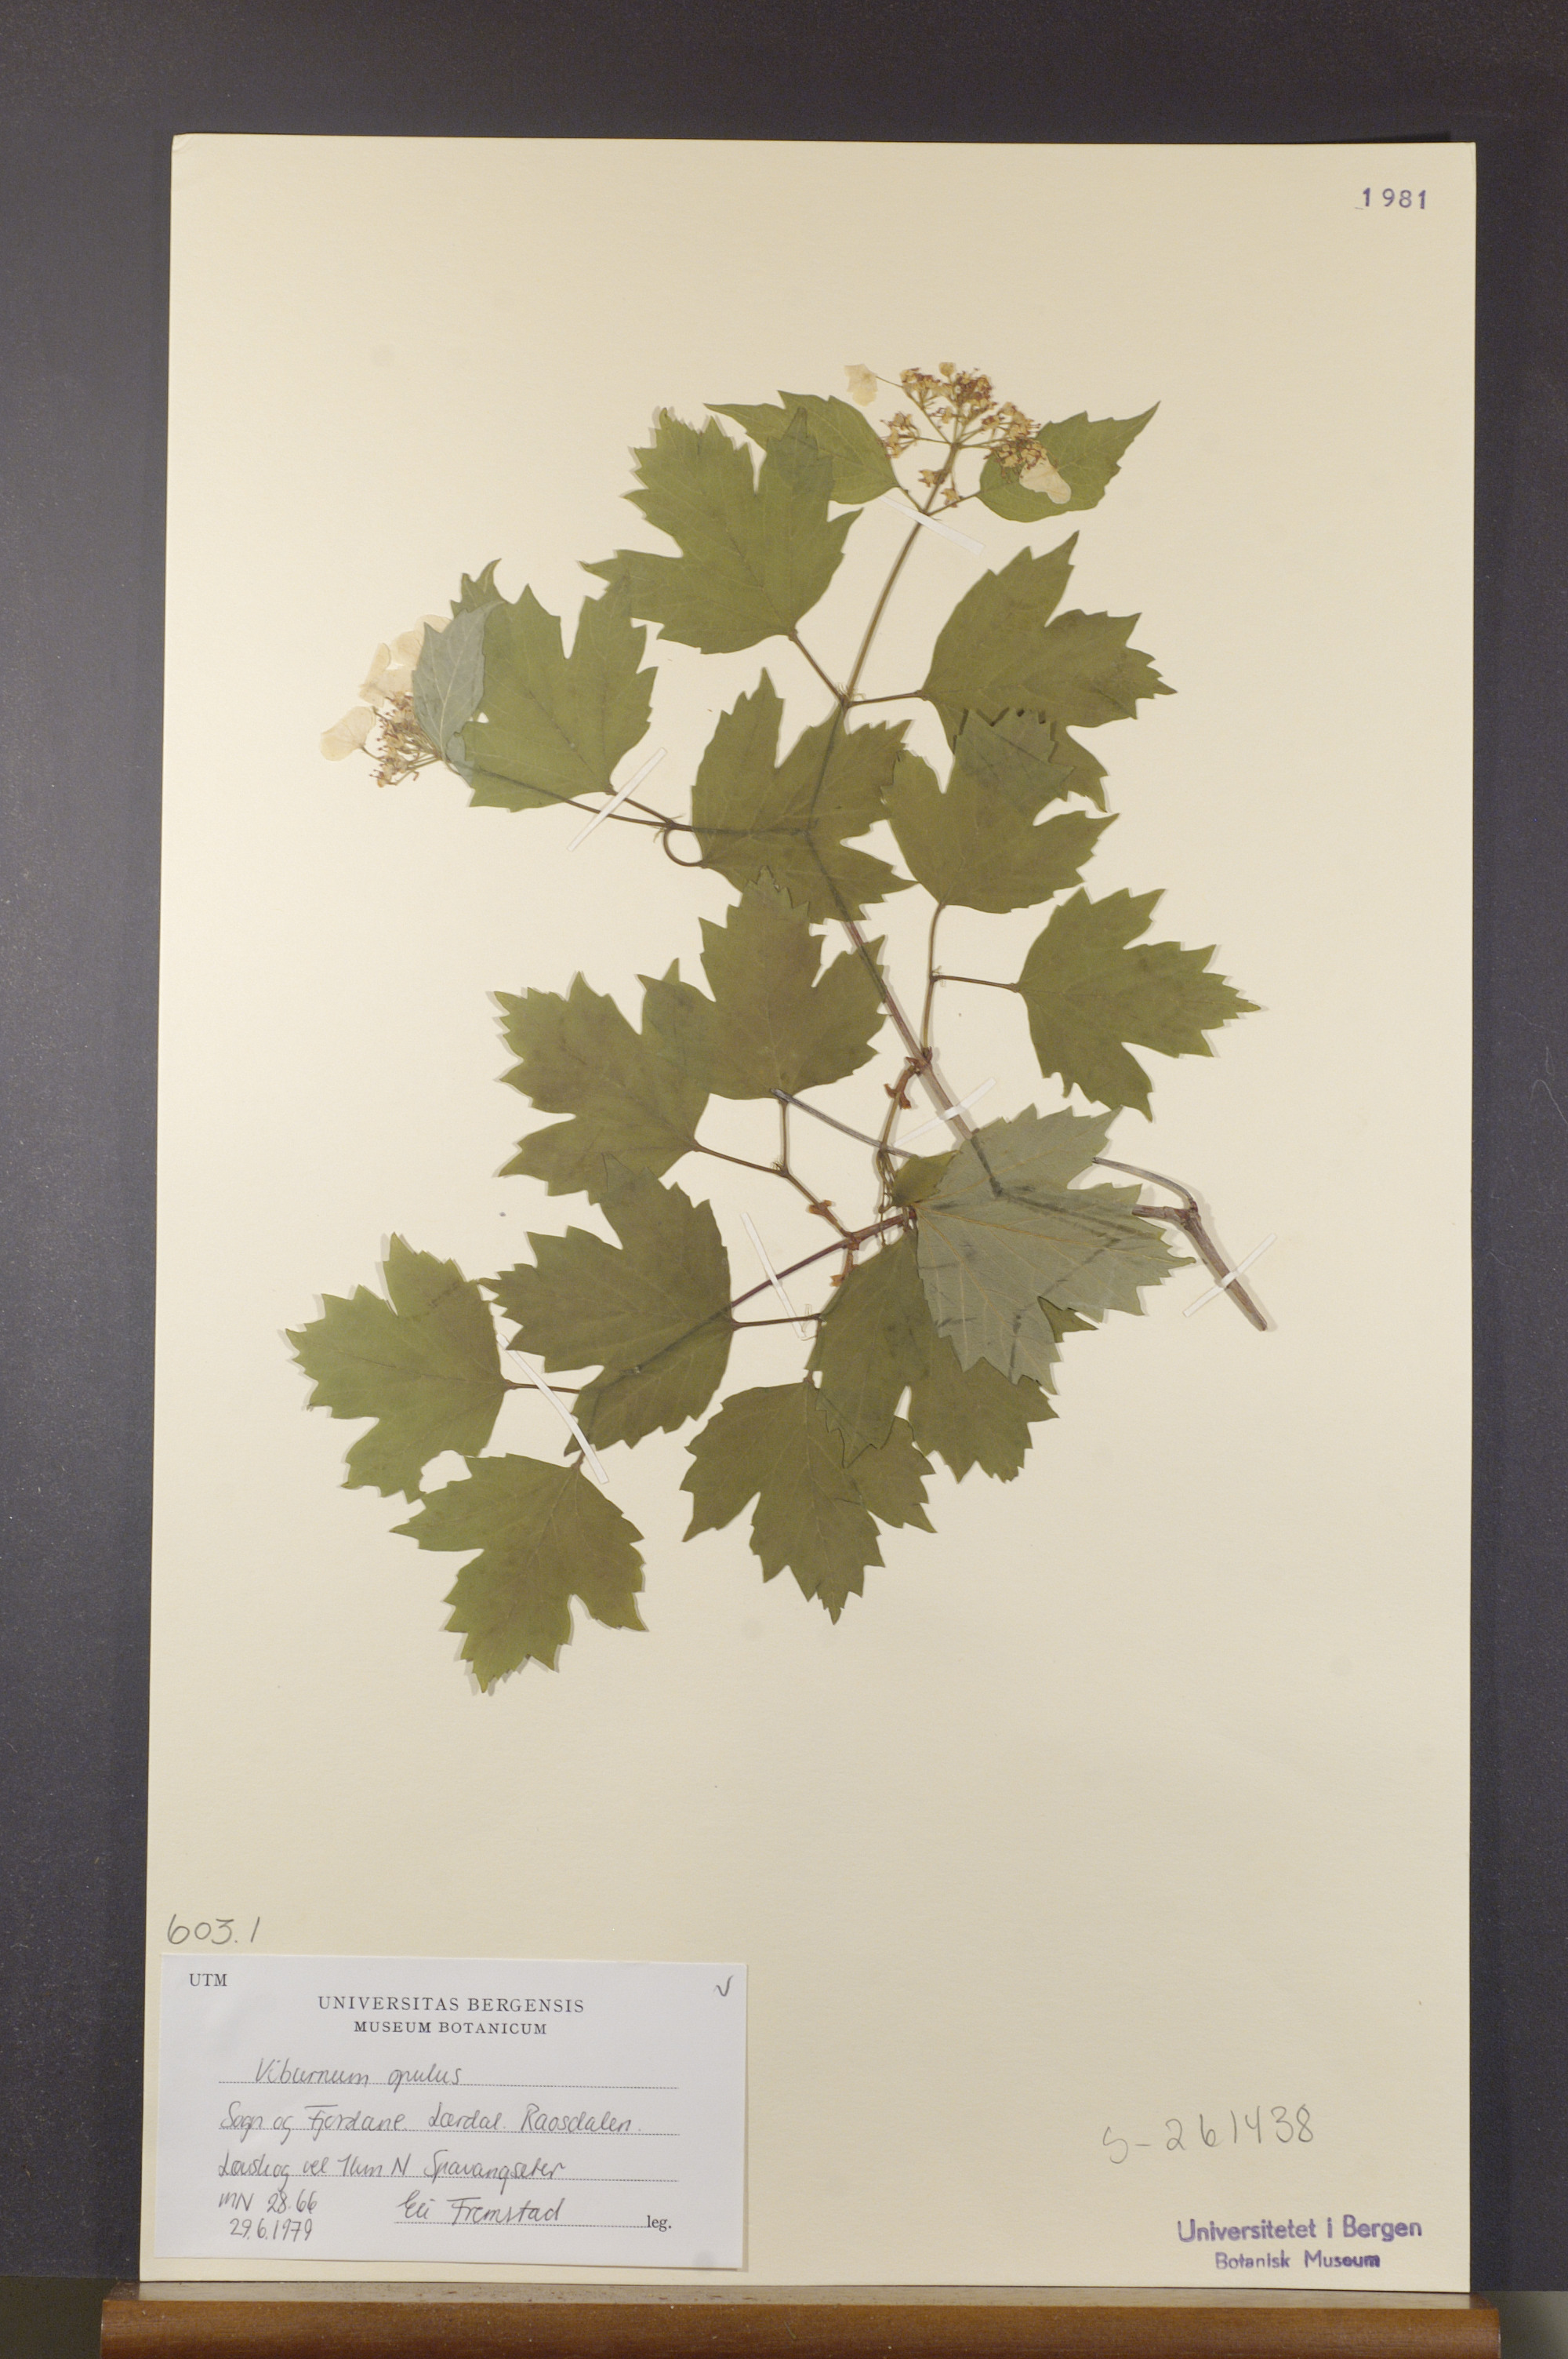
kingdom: Plantae
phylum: Tracheophyta
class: Magnoliopsida
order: Dipsacales
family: Viburnaceae
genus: Viburnum
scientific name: Viburnum opulus
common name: Guelder-rose
